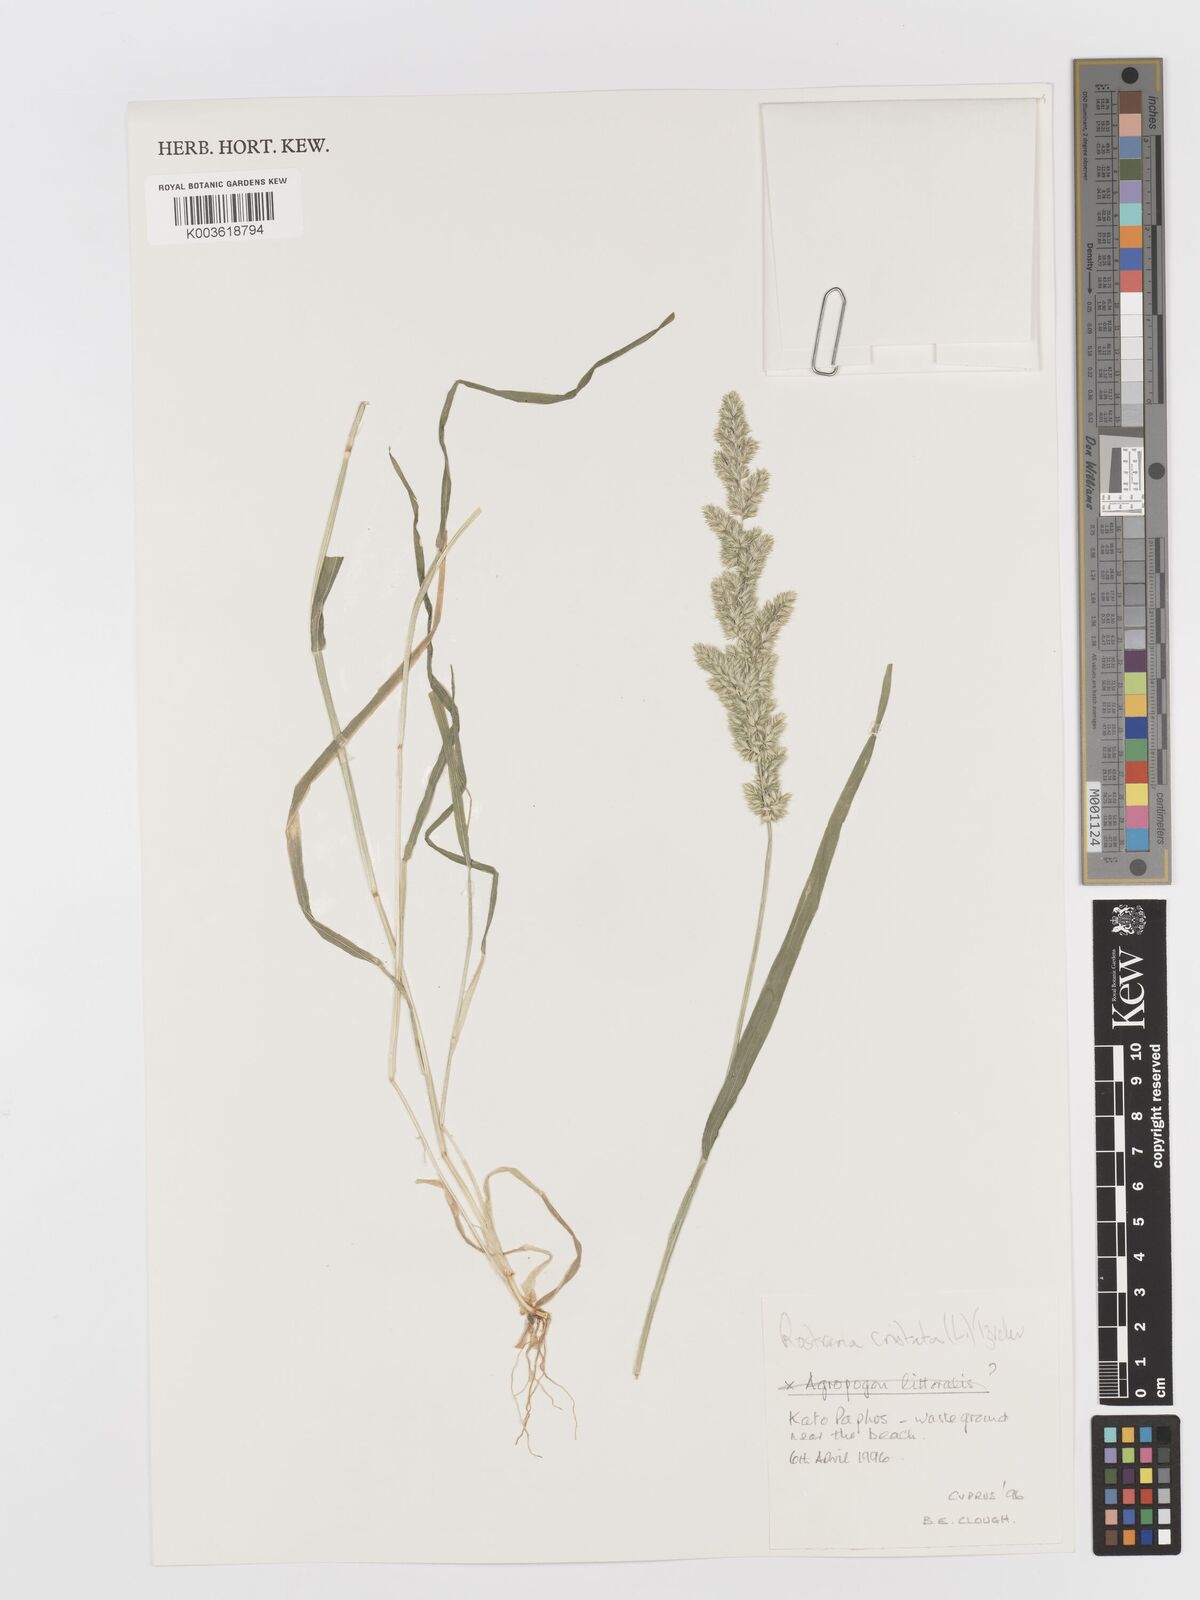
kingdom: Plantae
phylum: Tracheophyta
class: Liliopsida
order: Poales
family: Poaceae
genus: Rostraria
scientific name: Rostraria cristata
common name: Mediterranean hair-grass
